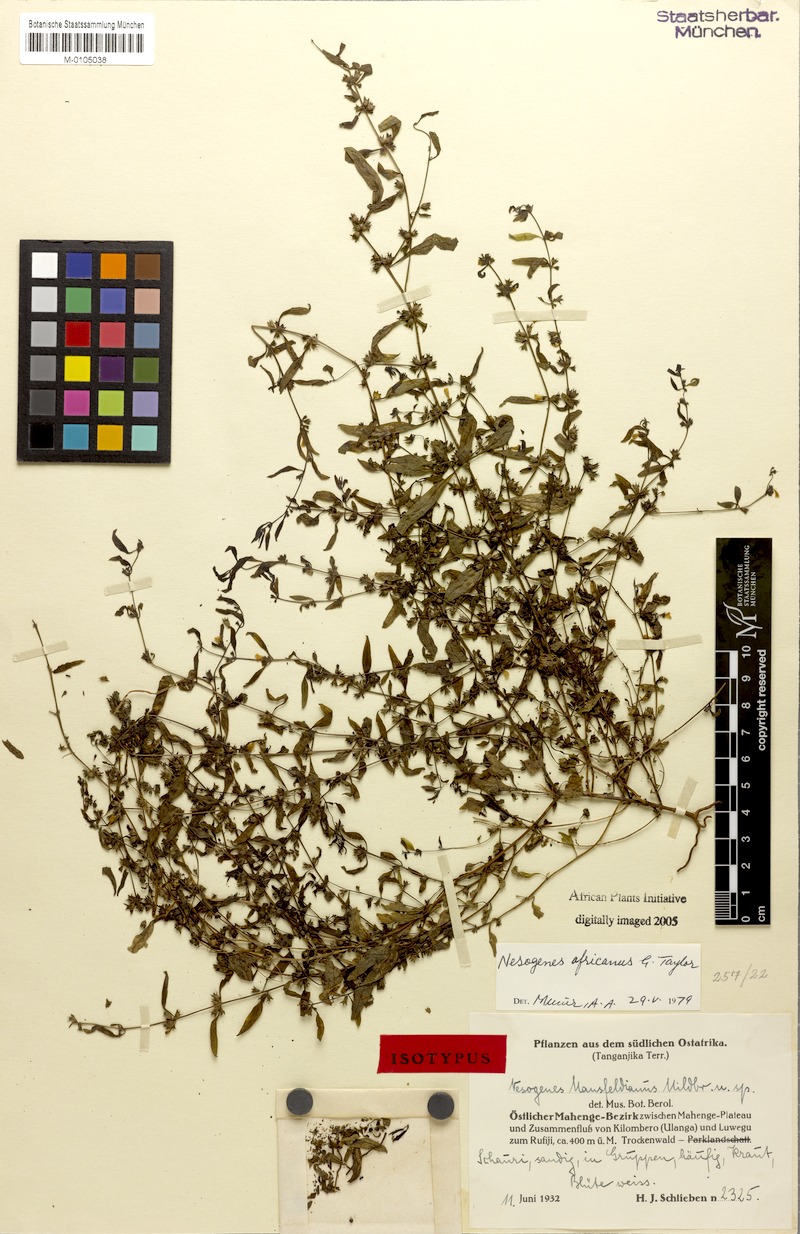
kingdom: Plantae
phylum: Tracheophyta
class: Magnoliopsida
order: Lamiales
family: Orobanchaceae
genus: Nesogenes
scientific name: Nesogenes africanus
